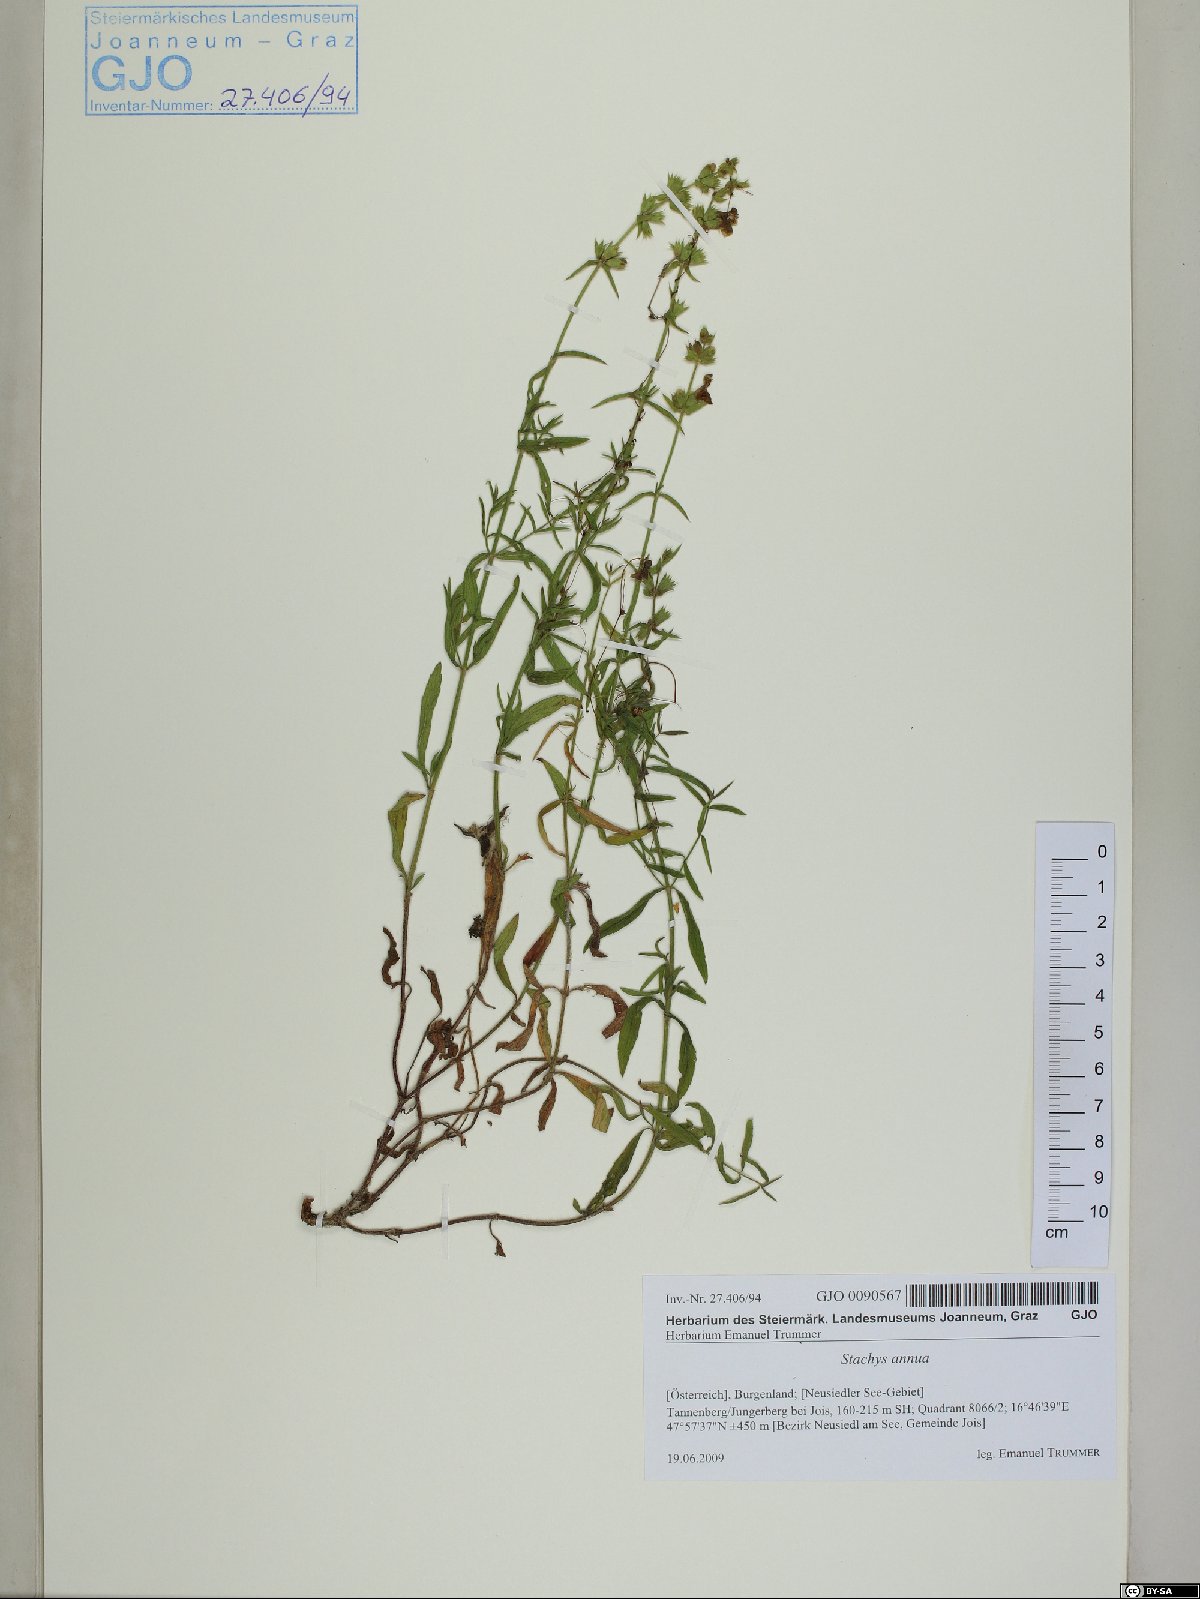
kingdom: Plantae
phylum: Tracheophyta
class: Magnoliopsida
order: Lamiales
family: Lamiaceae
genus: Stachys
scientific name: Stachys annua
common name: Annual yellow-woundwort
